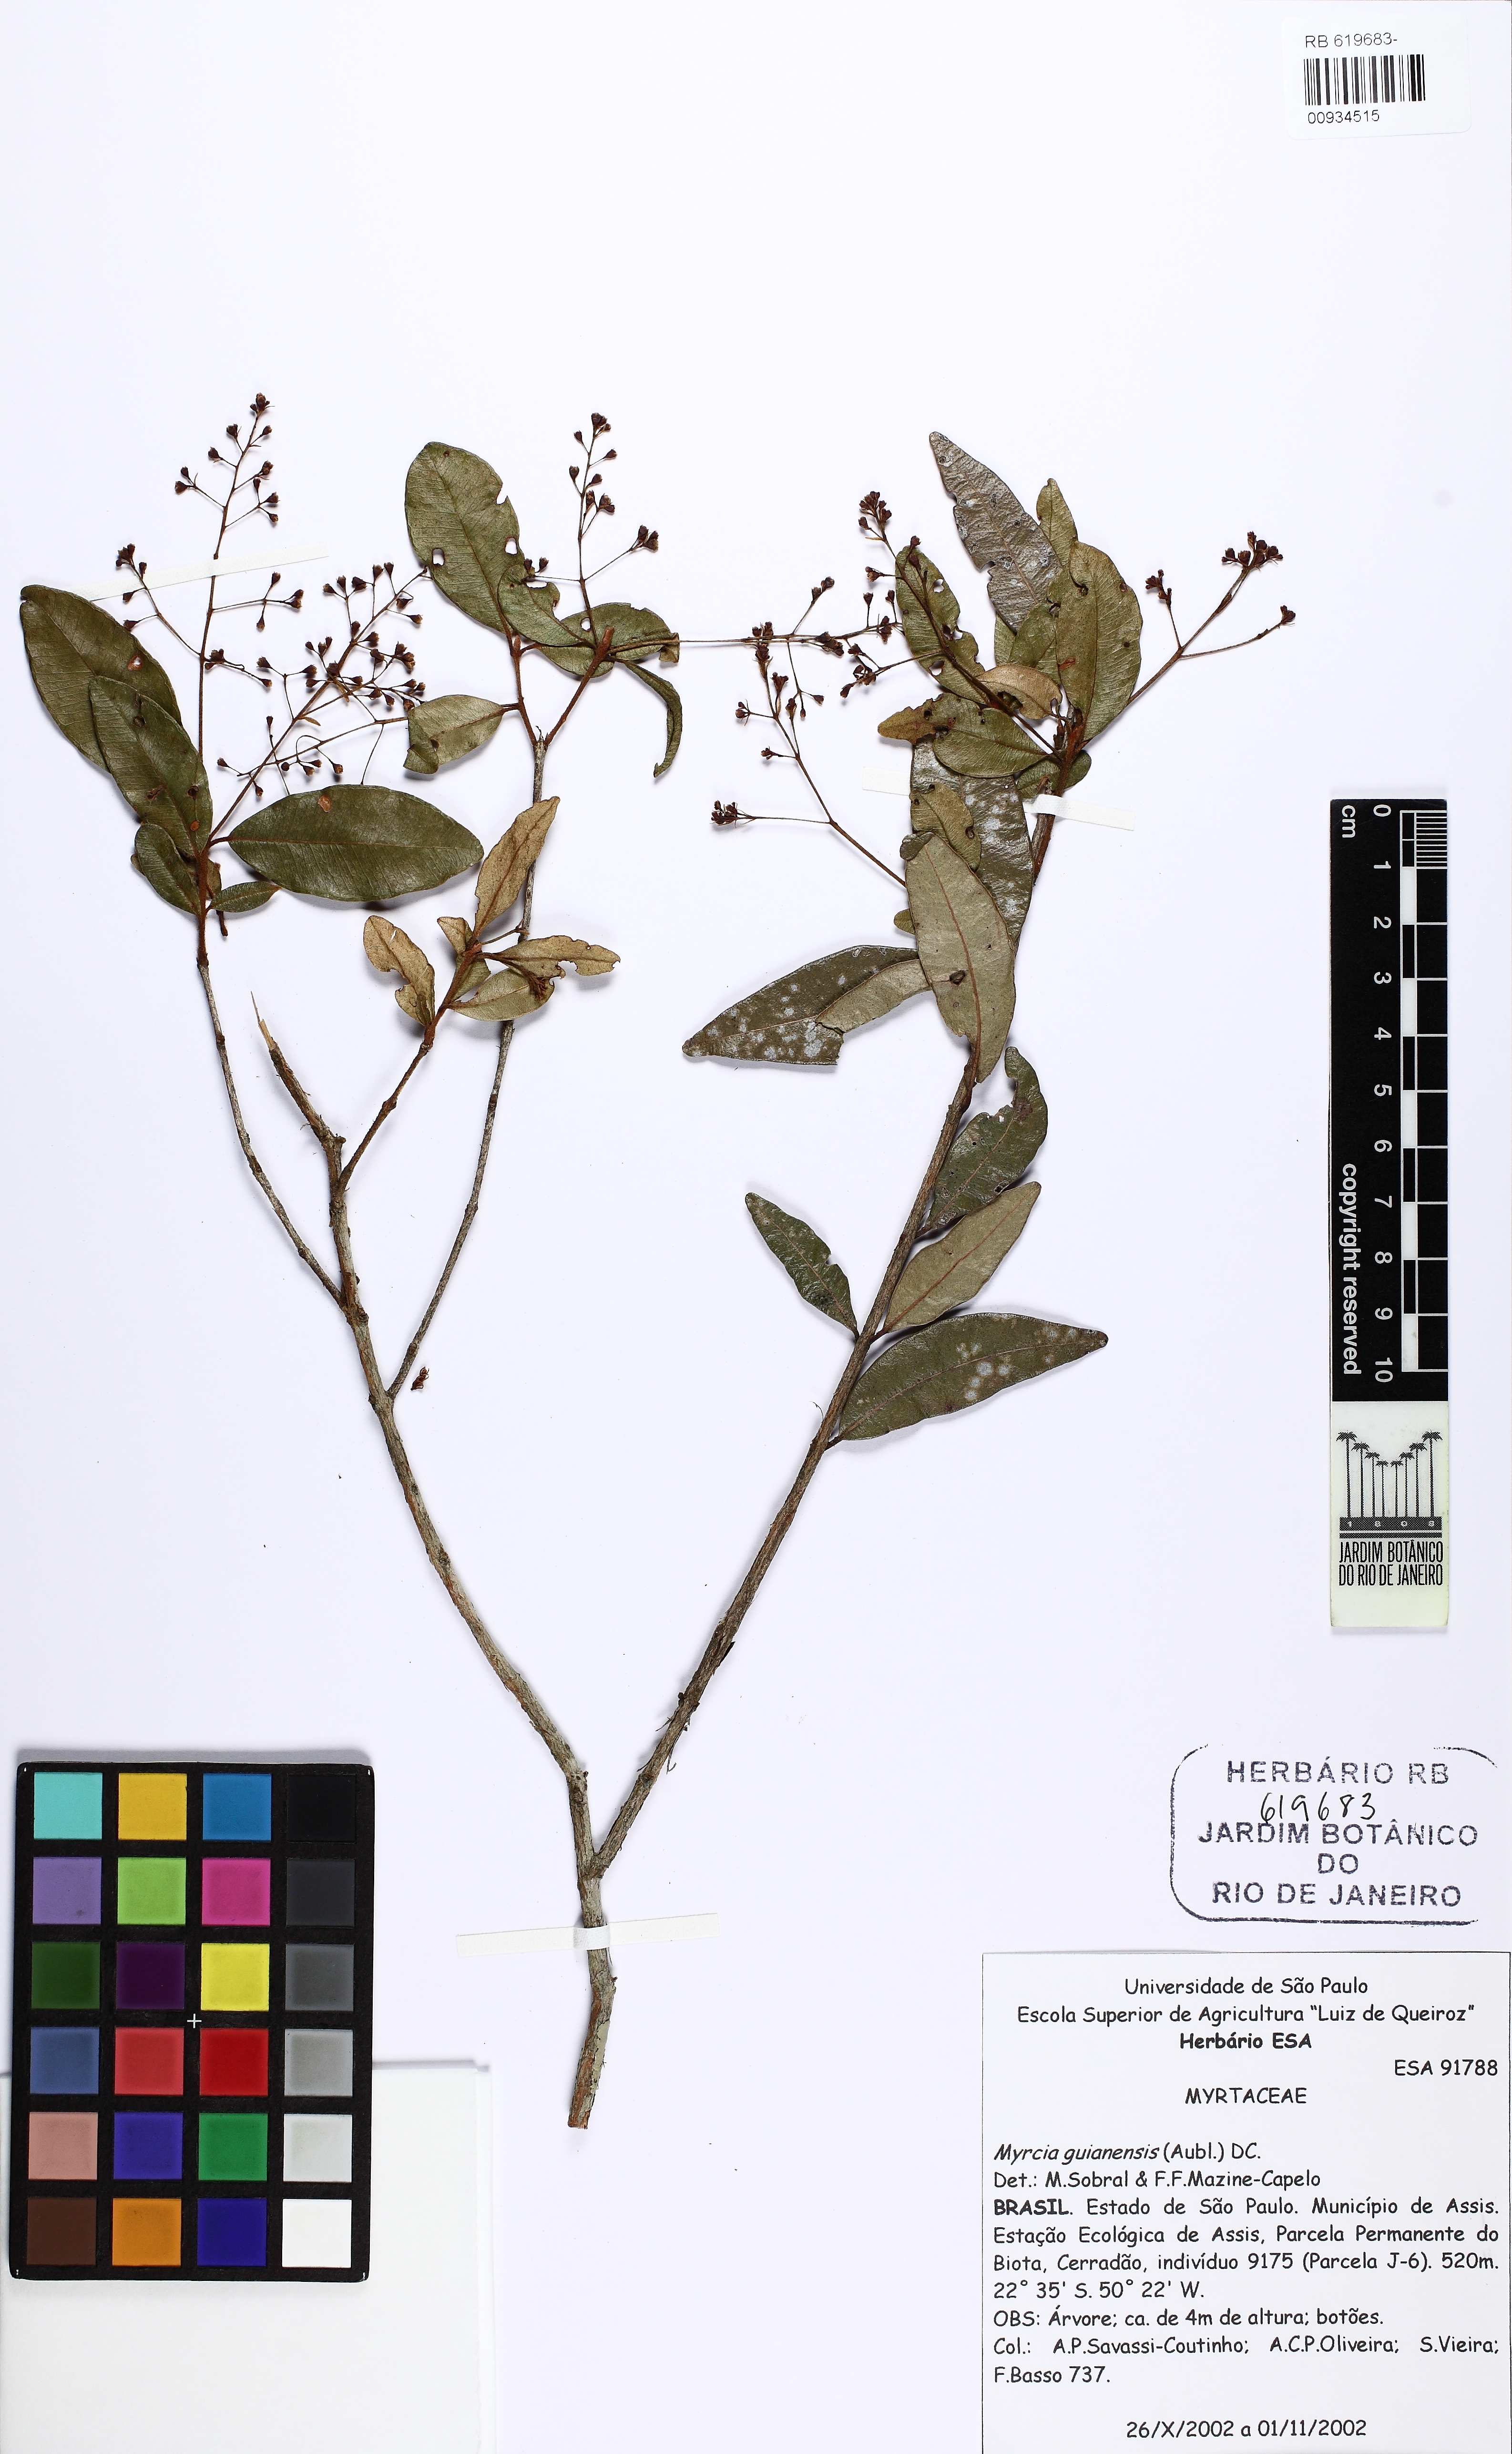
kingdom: Plantae
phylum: Tracheophyta
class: Magnoliopsida
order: Myrtales
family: Myrtaceae
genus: Myrcia
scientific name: Myrcia guianensis
